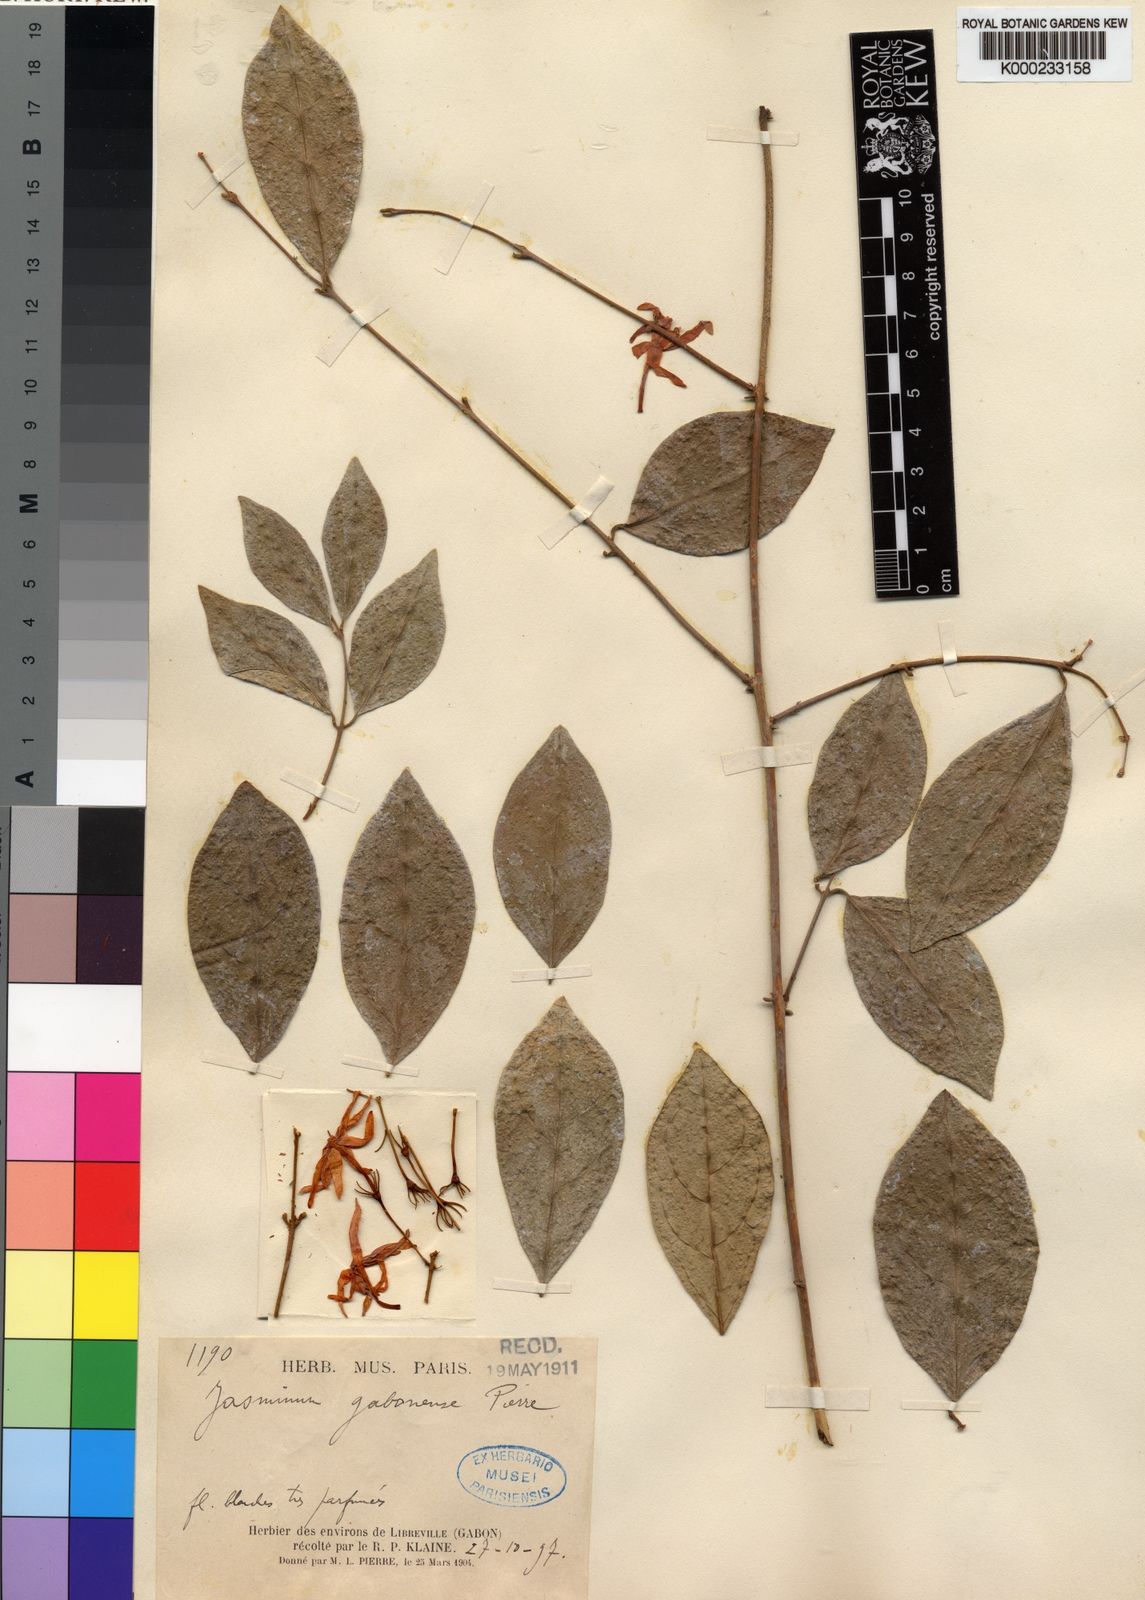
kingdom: Plantae
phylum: Tracheophyta
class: Magnoliopsida
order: Lamiales
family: Oleaceae
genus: Jasminum
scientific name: Jasminum
